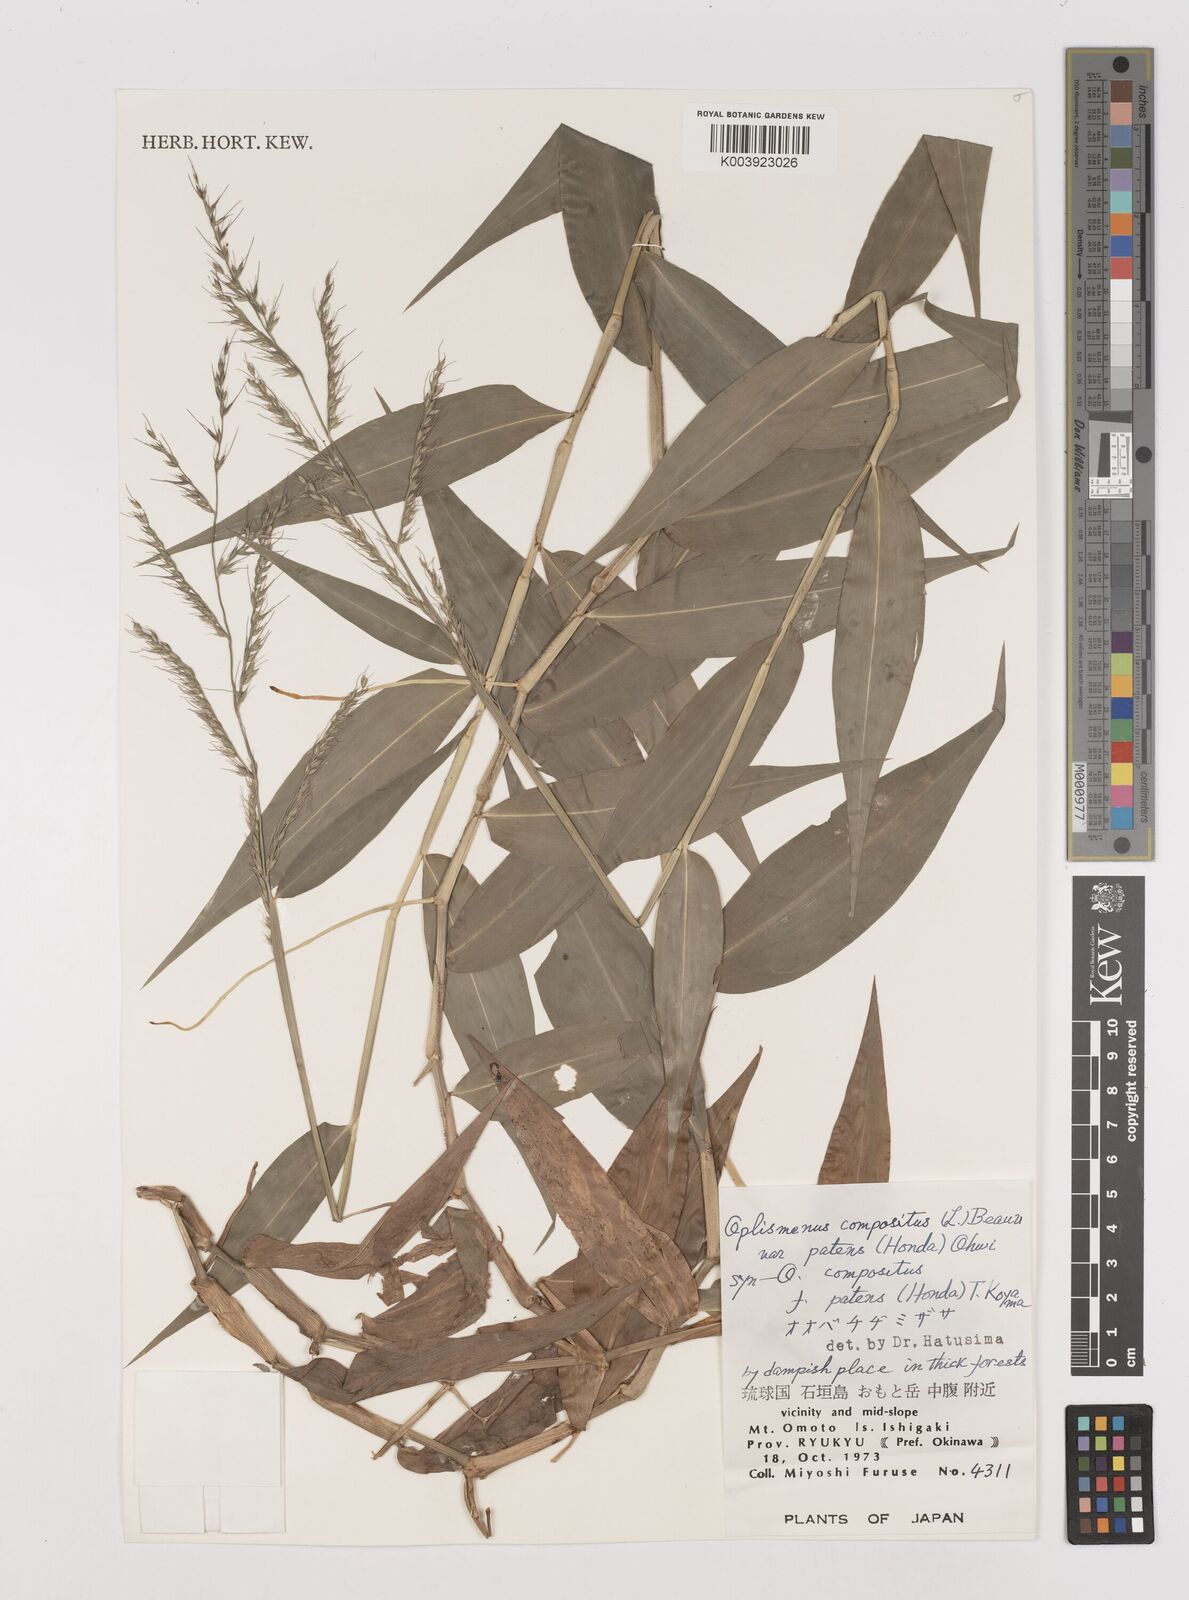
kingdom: Plantae
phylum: Tracheophyta
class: Liliopsida
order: Poales
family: Poaceae
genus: Oplismenus
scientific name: Oplismenus compositus
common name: Running mountain grass
